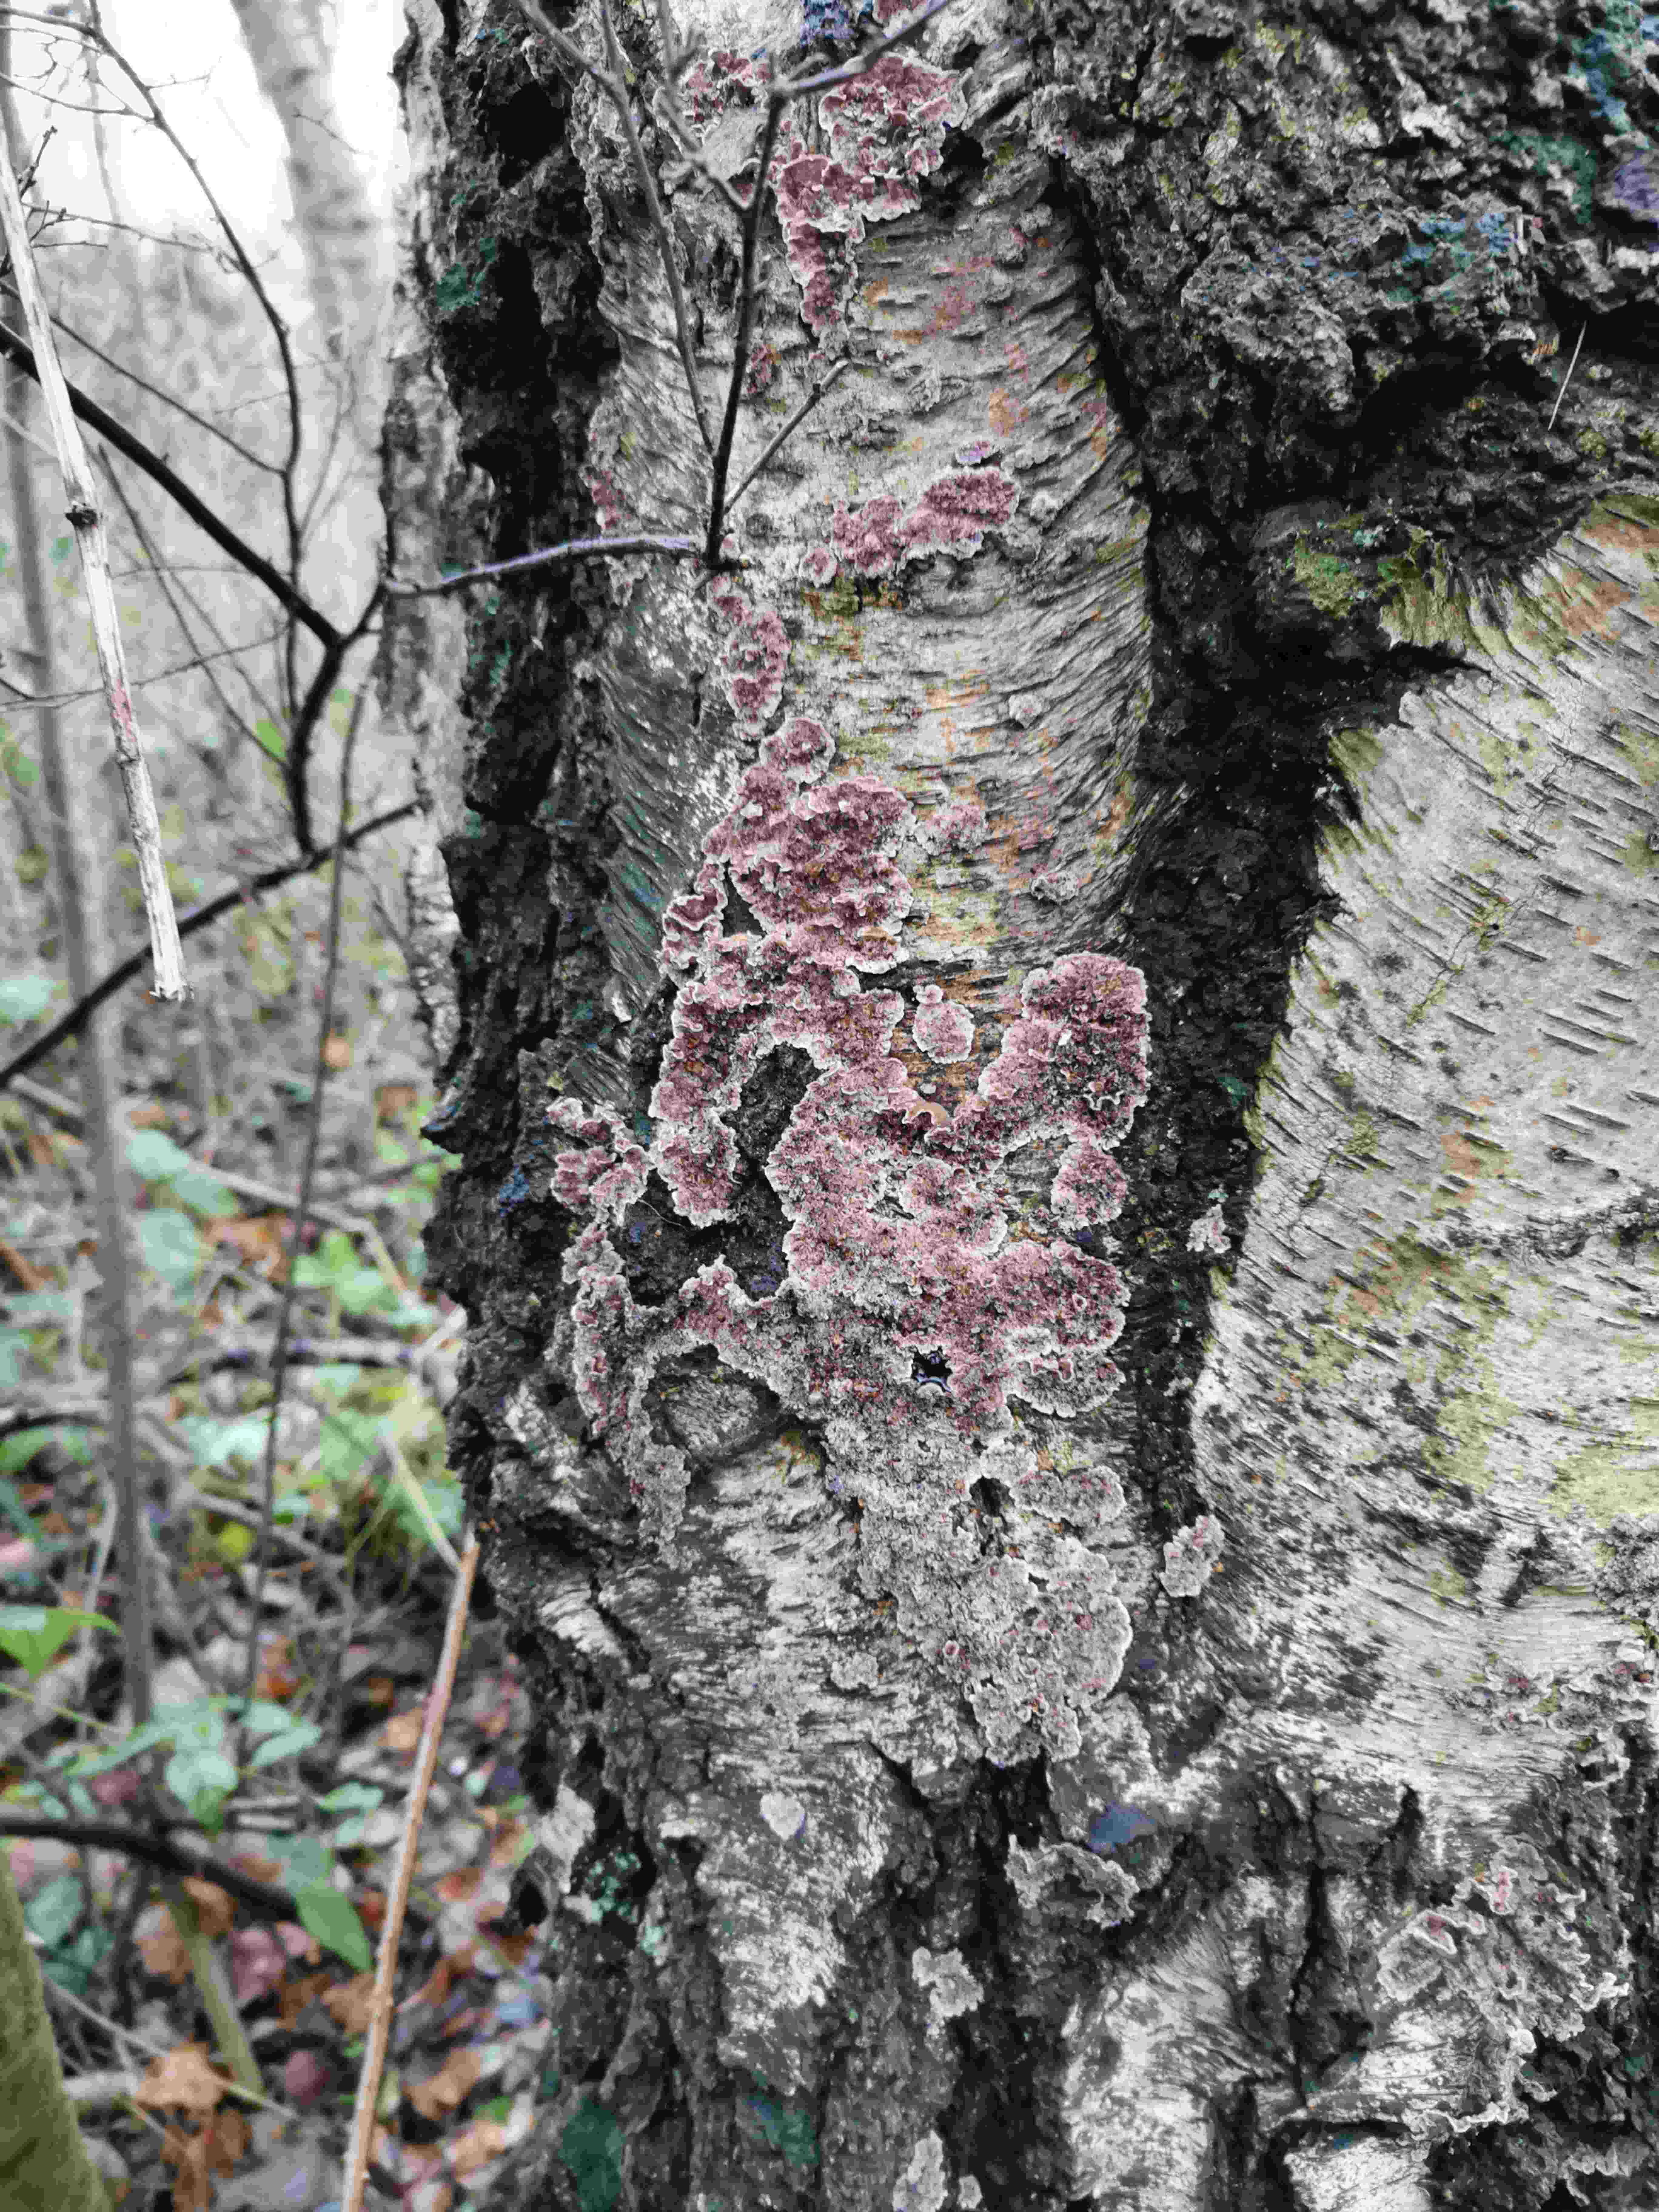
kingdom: Fungi
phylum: Basidiomycota
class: Agaricomycetes
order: Agaricales
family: Cyphellaceae
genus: Chondrostereum
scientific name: Chondrostereum purpureum
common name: purpurlædersvamp
